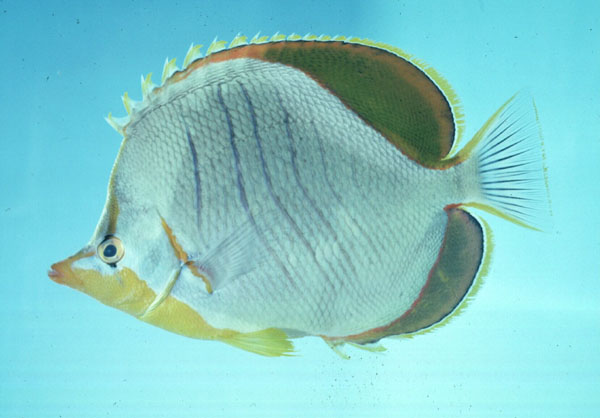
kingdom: Animalia
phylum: Chordata
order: Perciformes
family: Chaetodontidae
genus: Chaetodon
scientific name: Chaetodon xanthocephalus
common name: Yellowhead butterflyfish
